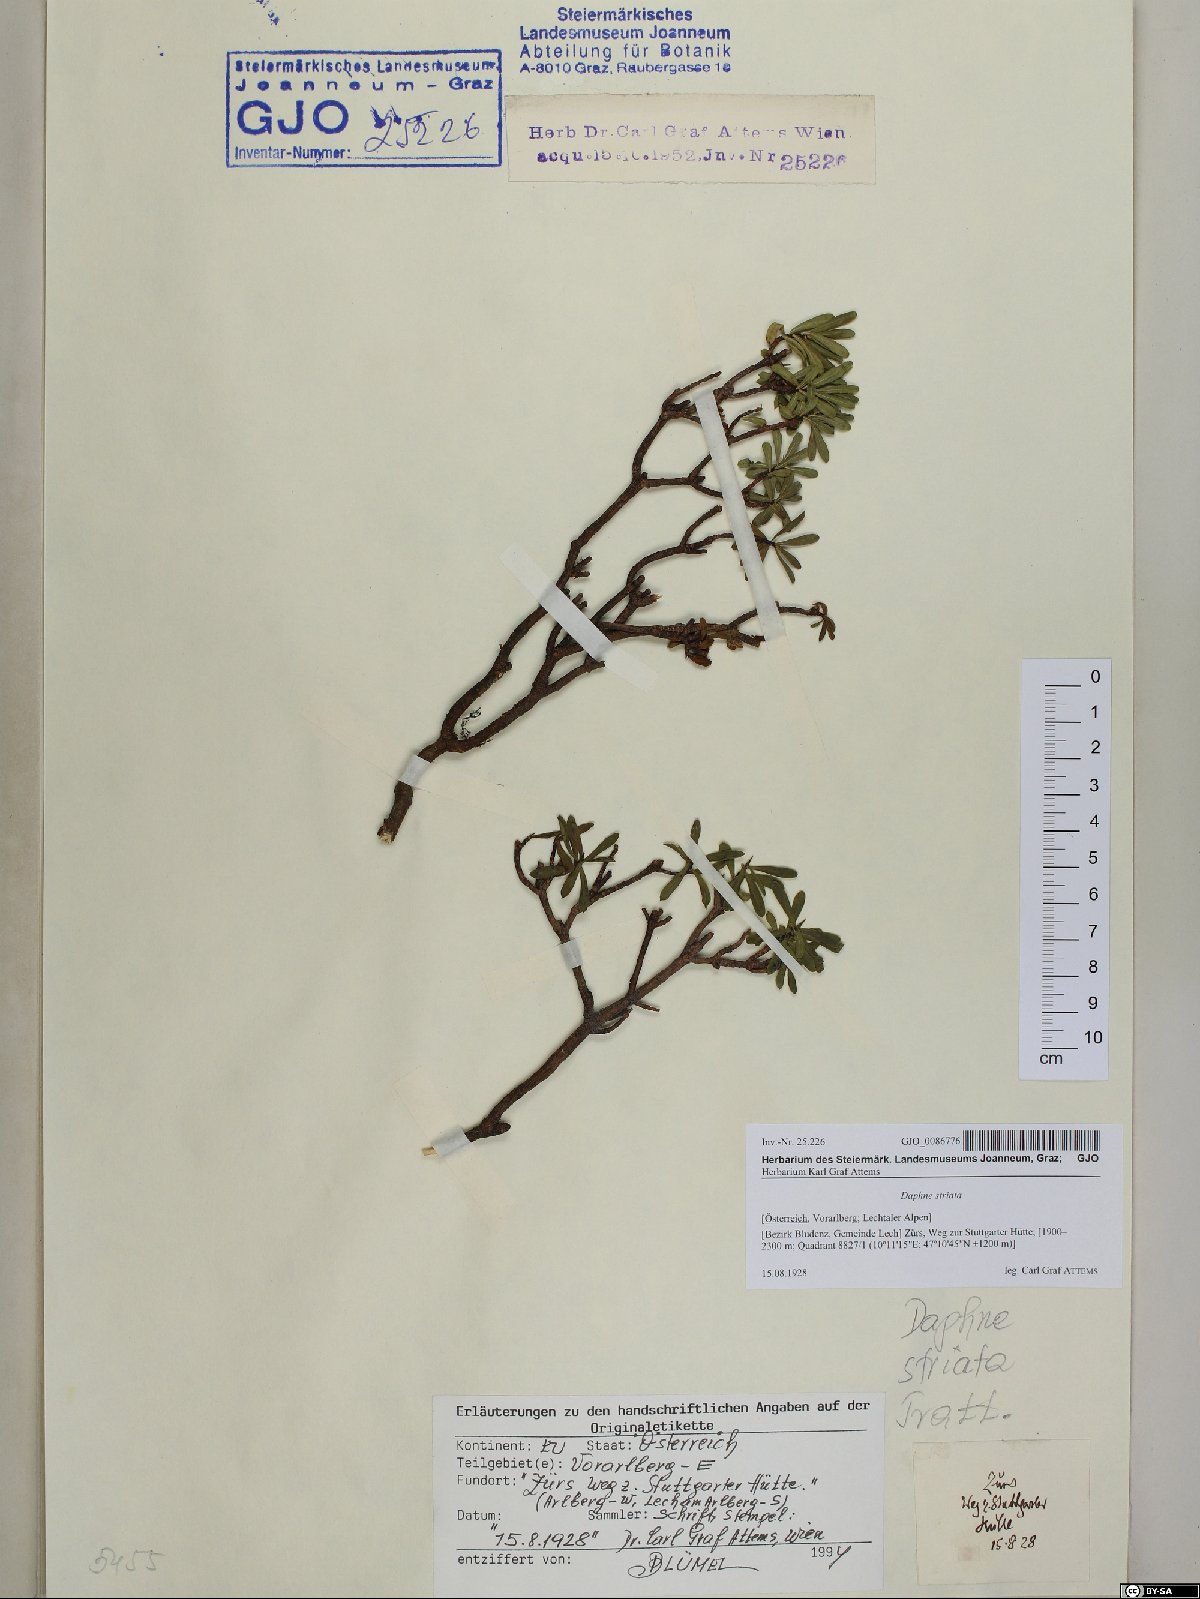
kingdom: Plantae
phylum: Tracheophyta
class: Magnoliopsida
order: Malvales
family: Thymelaeaceae
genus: Daphne
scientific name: Daphne striata
